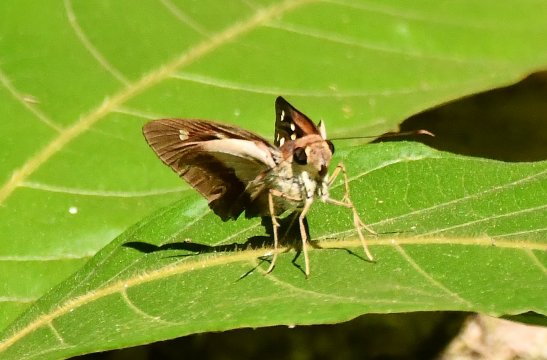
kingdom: Animalia
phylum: Arthropoda
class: Insecta
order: Lepidoptera
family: Hesperiidae
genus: Calpodes
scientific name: Calpodes
